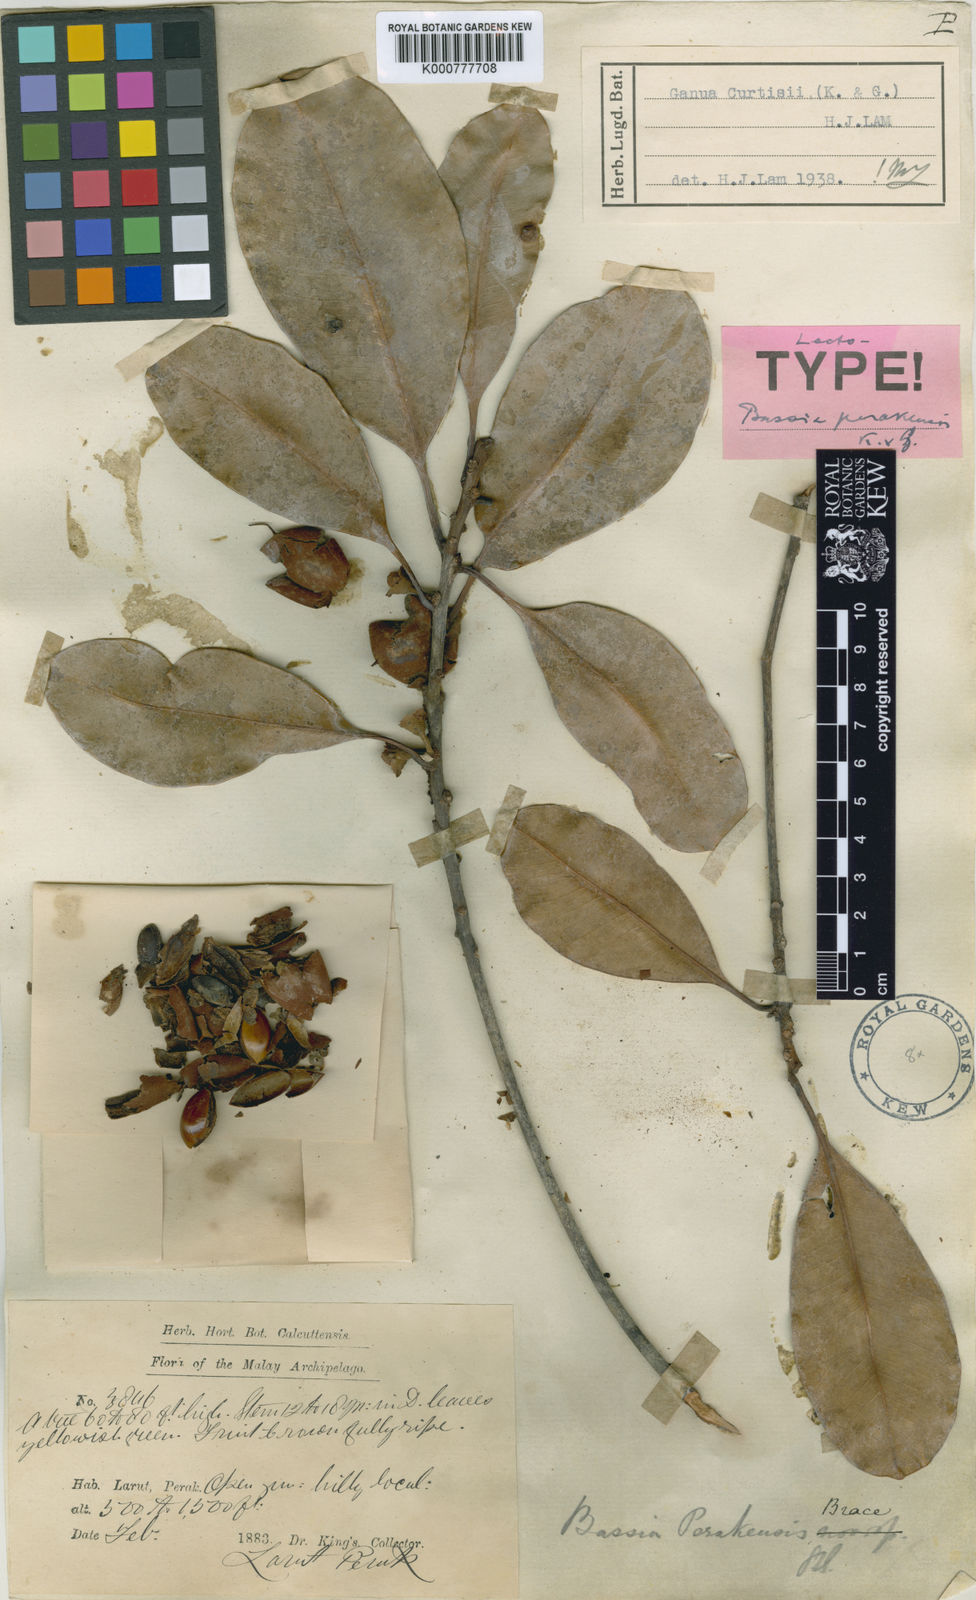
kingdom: Plantae
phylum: Tracheophyta
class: Magnoliopsida
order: Ericales
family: Sapotaceae
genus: Madhuca
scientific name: Madhuca curtisii
